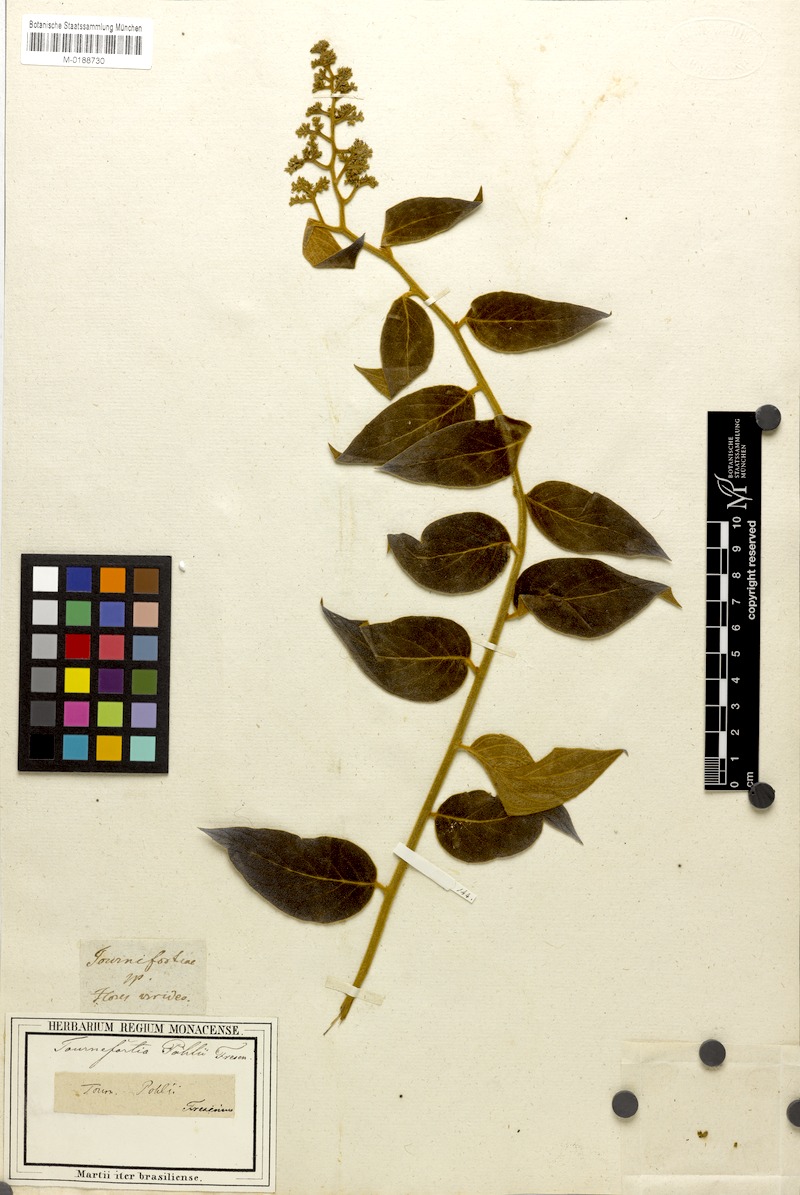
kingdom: Plantae
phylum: Tracheophyta
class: Magnoliopsida
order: Boraginales
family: Heliotropiaceae
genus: Tournefortia
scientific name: Tournefortia villosa
